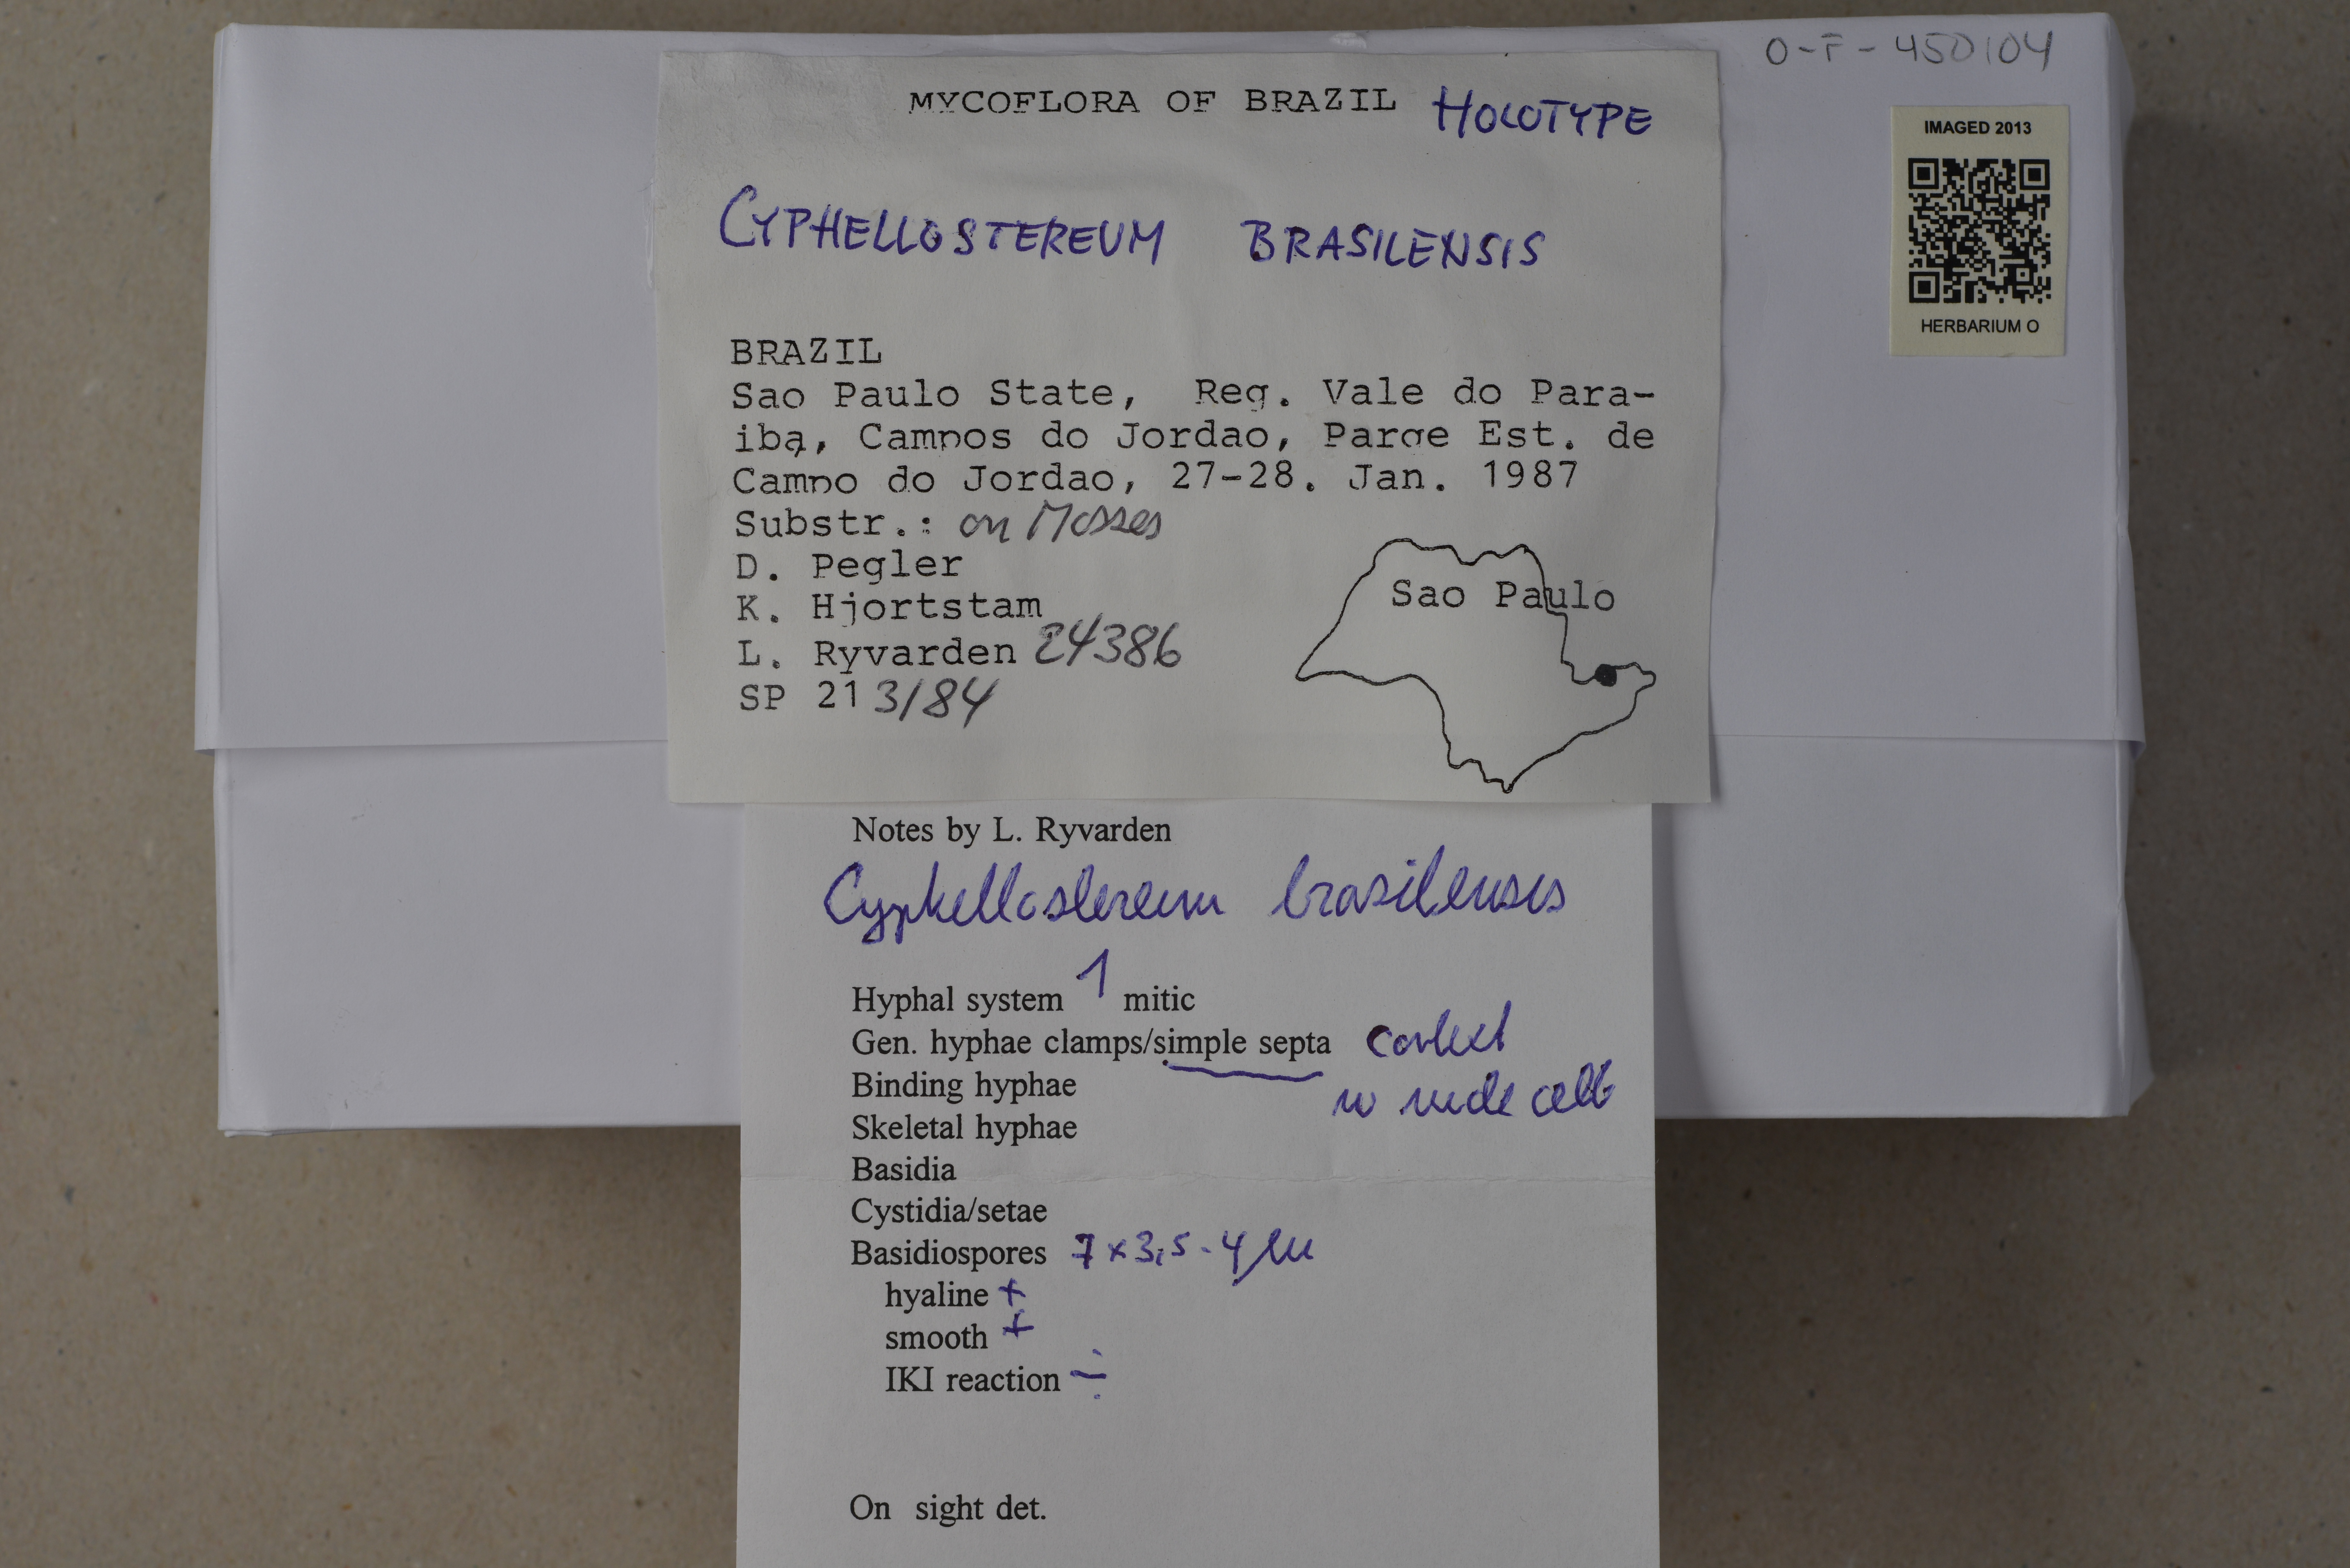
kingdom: Fungi
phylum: Basidiomycota
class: Agaricomycetes
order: Agaricales
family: Hygrophoraceae
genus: Cyphellostereum
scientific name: Cyphellostereum brasiliense
